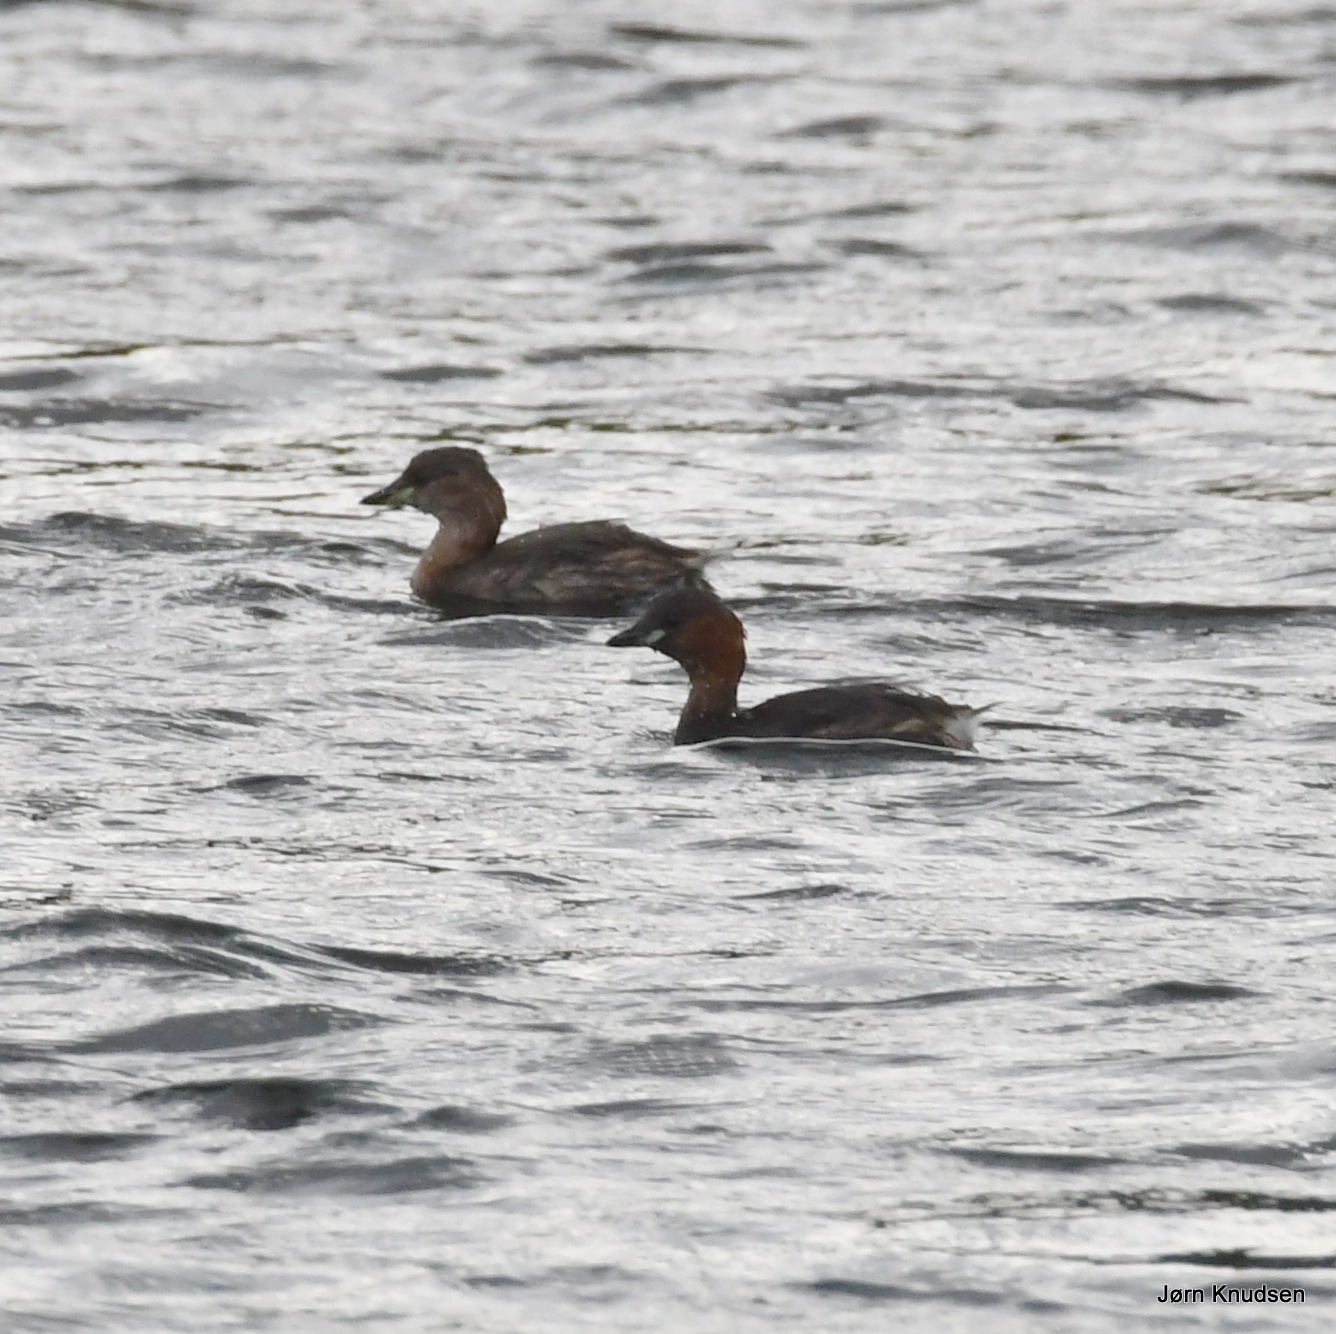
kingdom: Animalia
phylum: Chordata
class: Aves
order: Podicipediformes
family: Podicipedidae
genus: Tachybaptus
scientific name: Tachybaptus ruficollis
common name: Lille lappedykker
